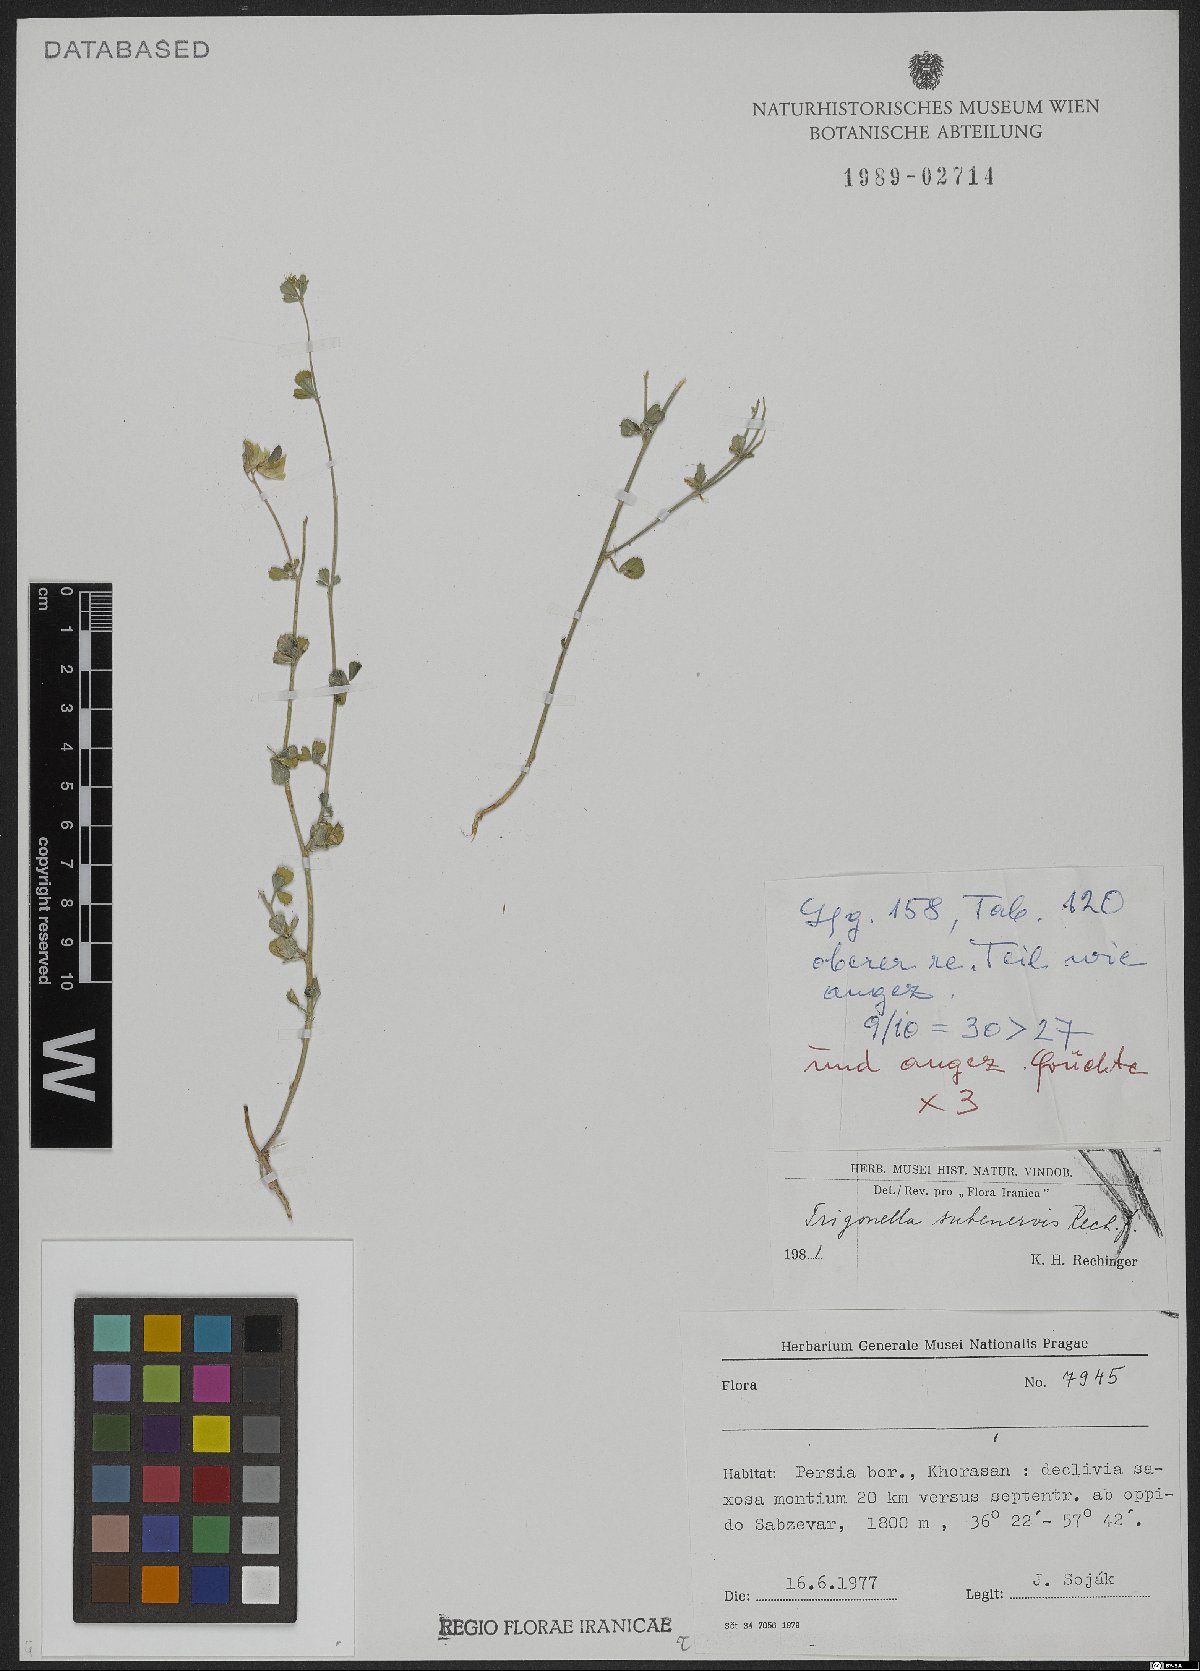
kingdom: Plantae
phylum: Tracheophyta
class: Magnoliopsida
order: Fabales
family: Fabaceae
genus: Trigonella
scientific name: Trigonella subenervis
